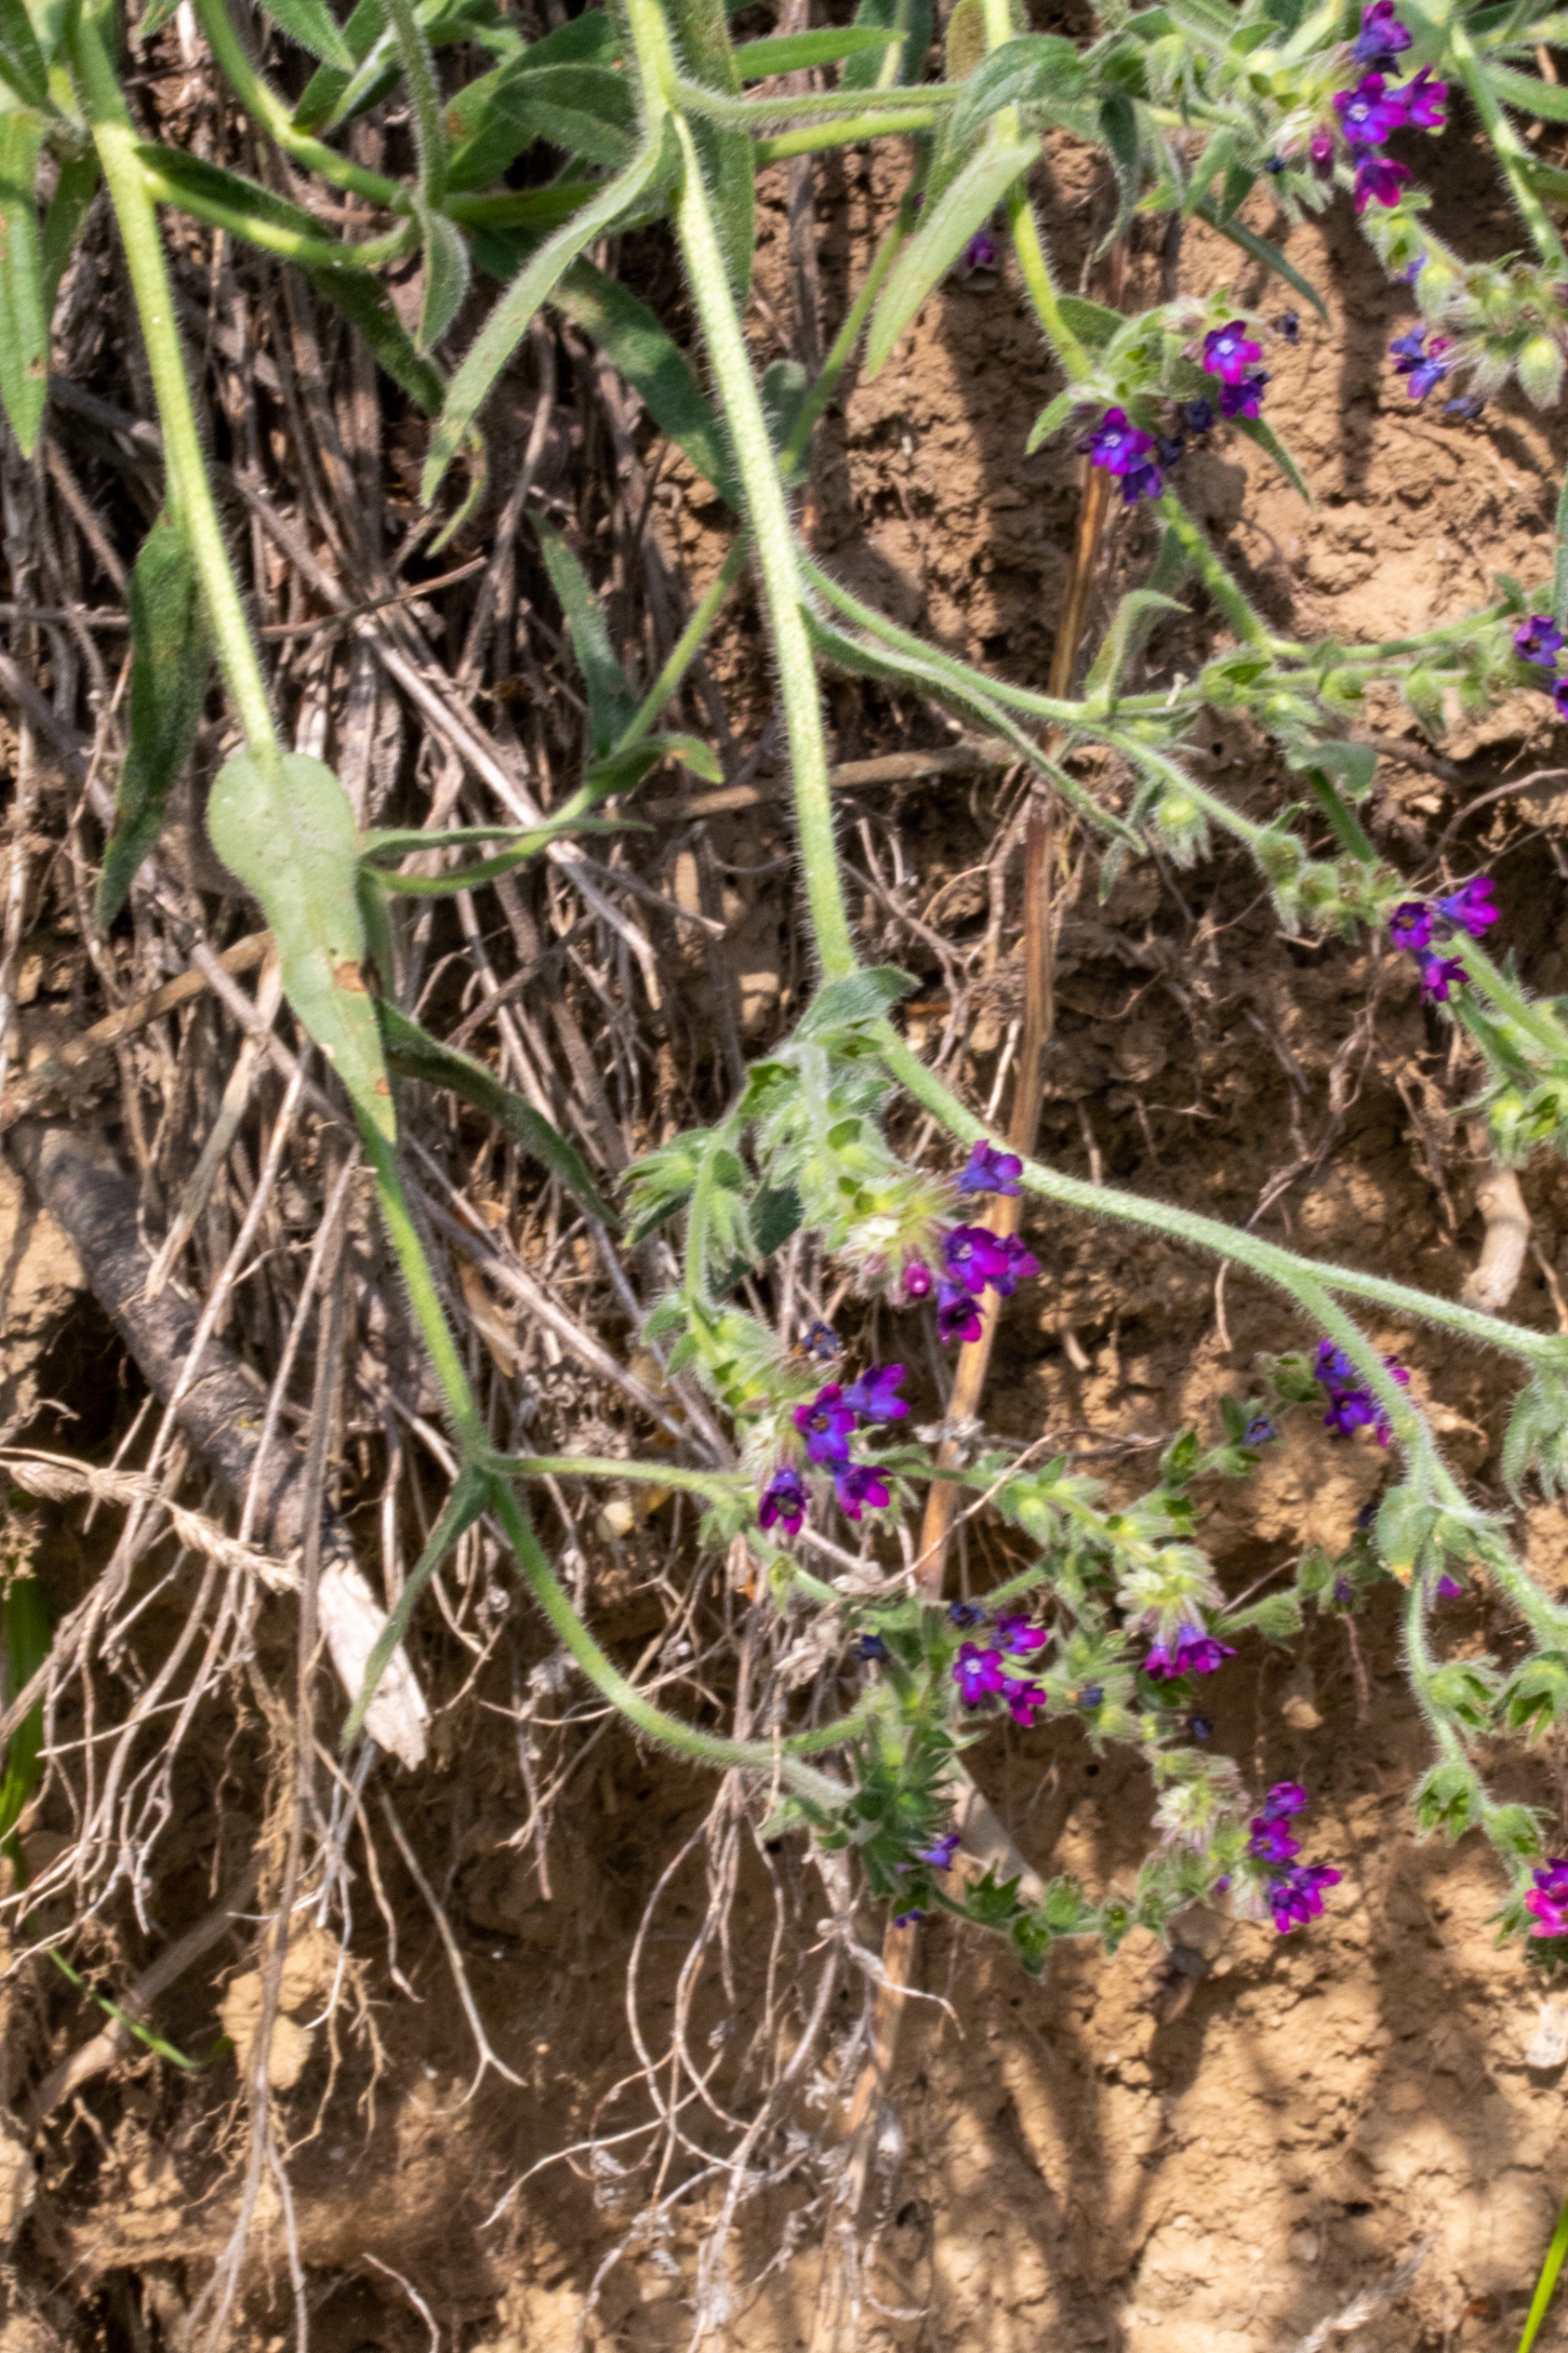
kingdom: Plantae
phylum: Tracheophyta
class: Magnoliopsida
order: Boraginales
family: Boraginaceae
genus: Anchusa
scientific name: Anchusa officinalis
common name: Læge-oksetunge
